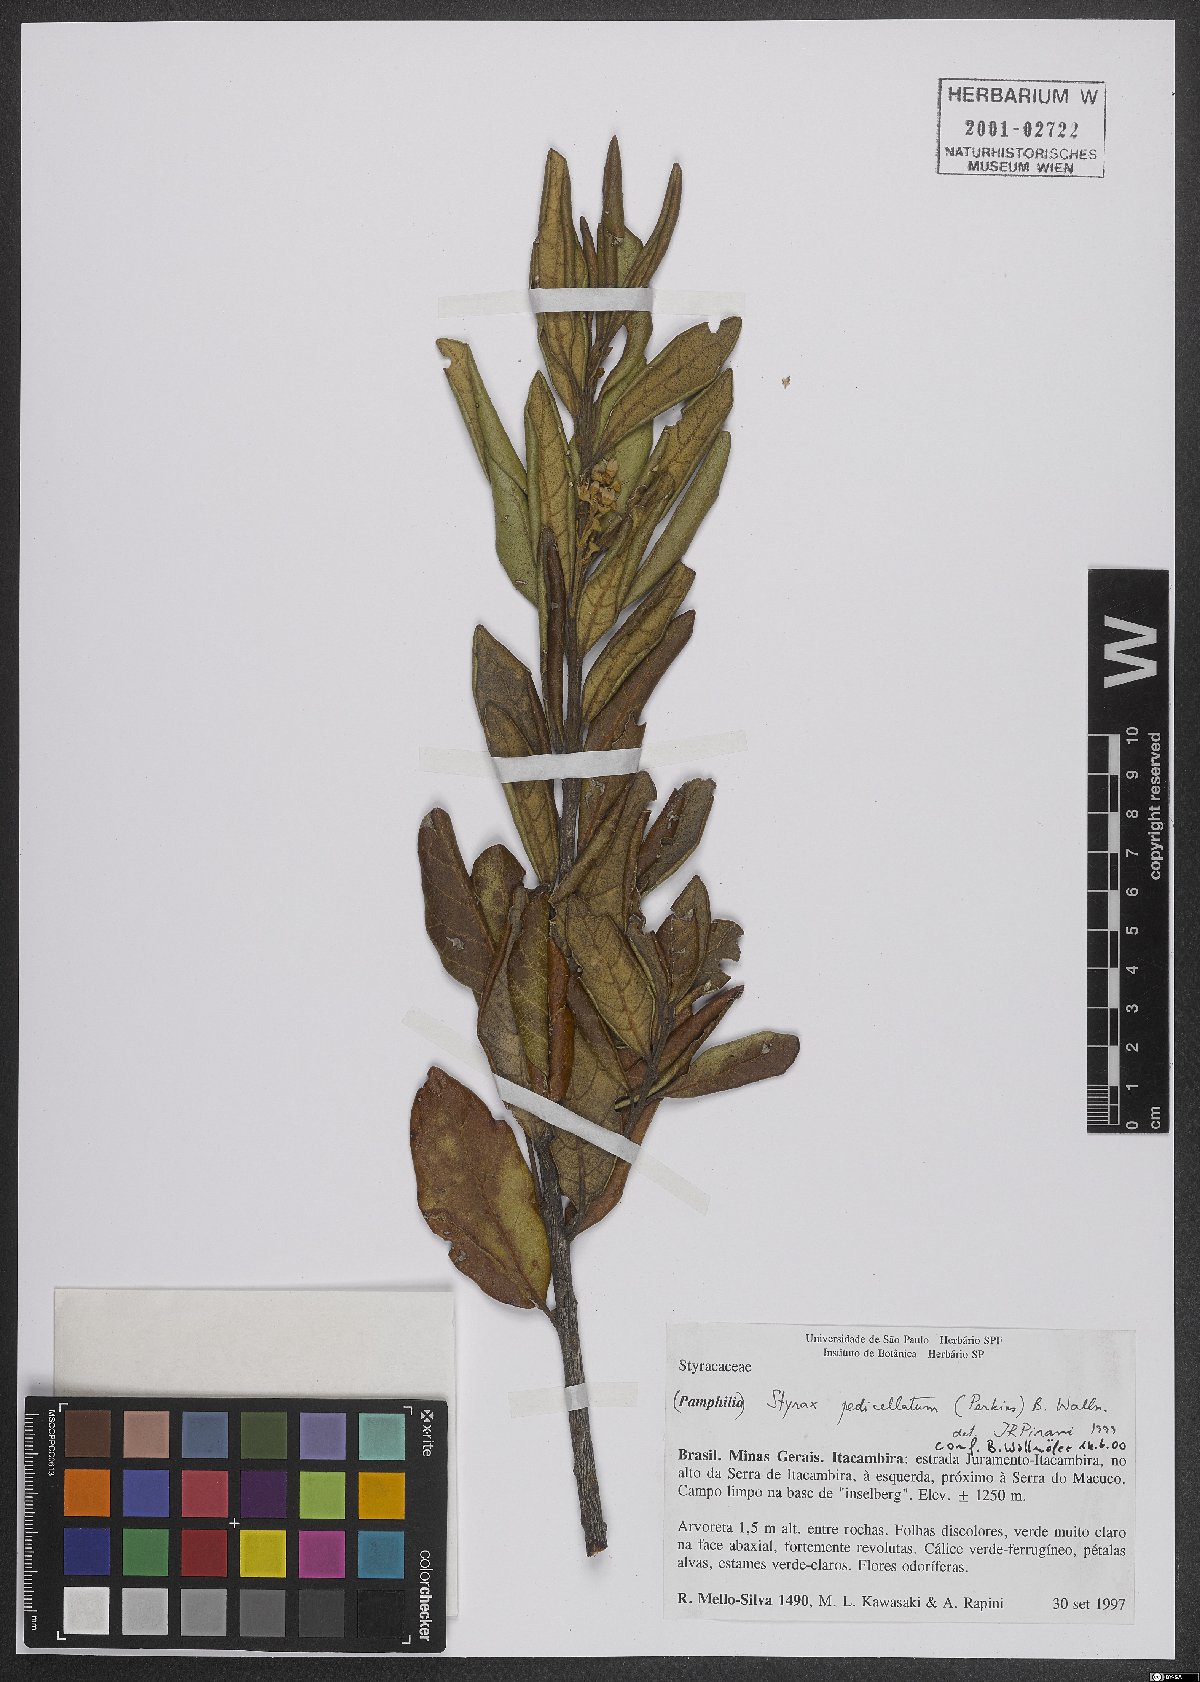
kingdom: Plantae
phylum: Tracheophyta
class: Magnoliopsida
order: Ericales
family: Styracaceae
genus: Styrax
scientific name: Styrax pedicellatus
